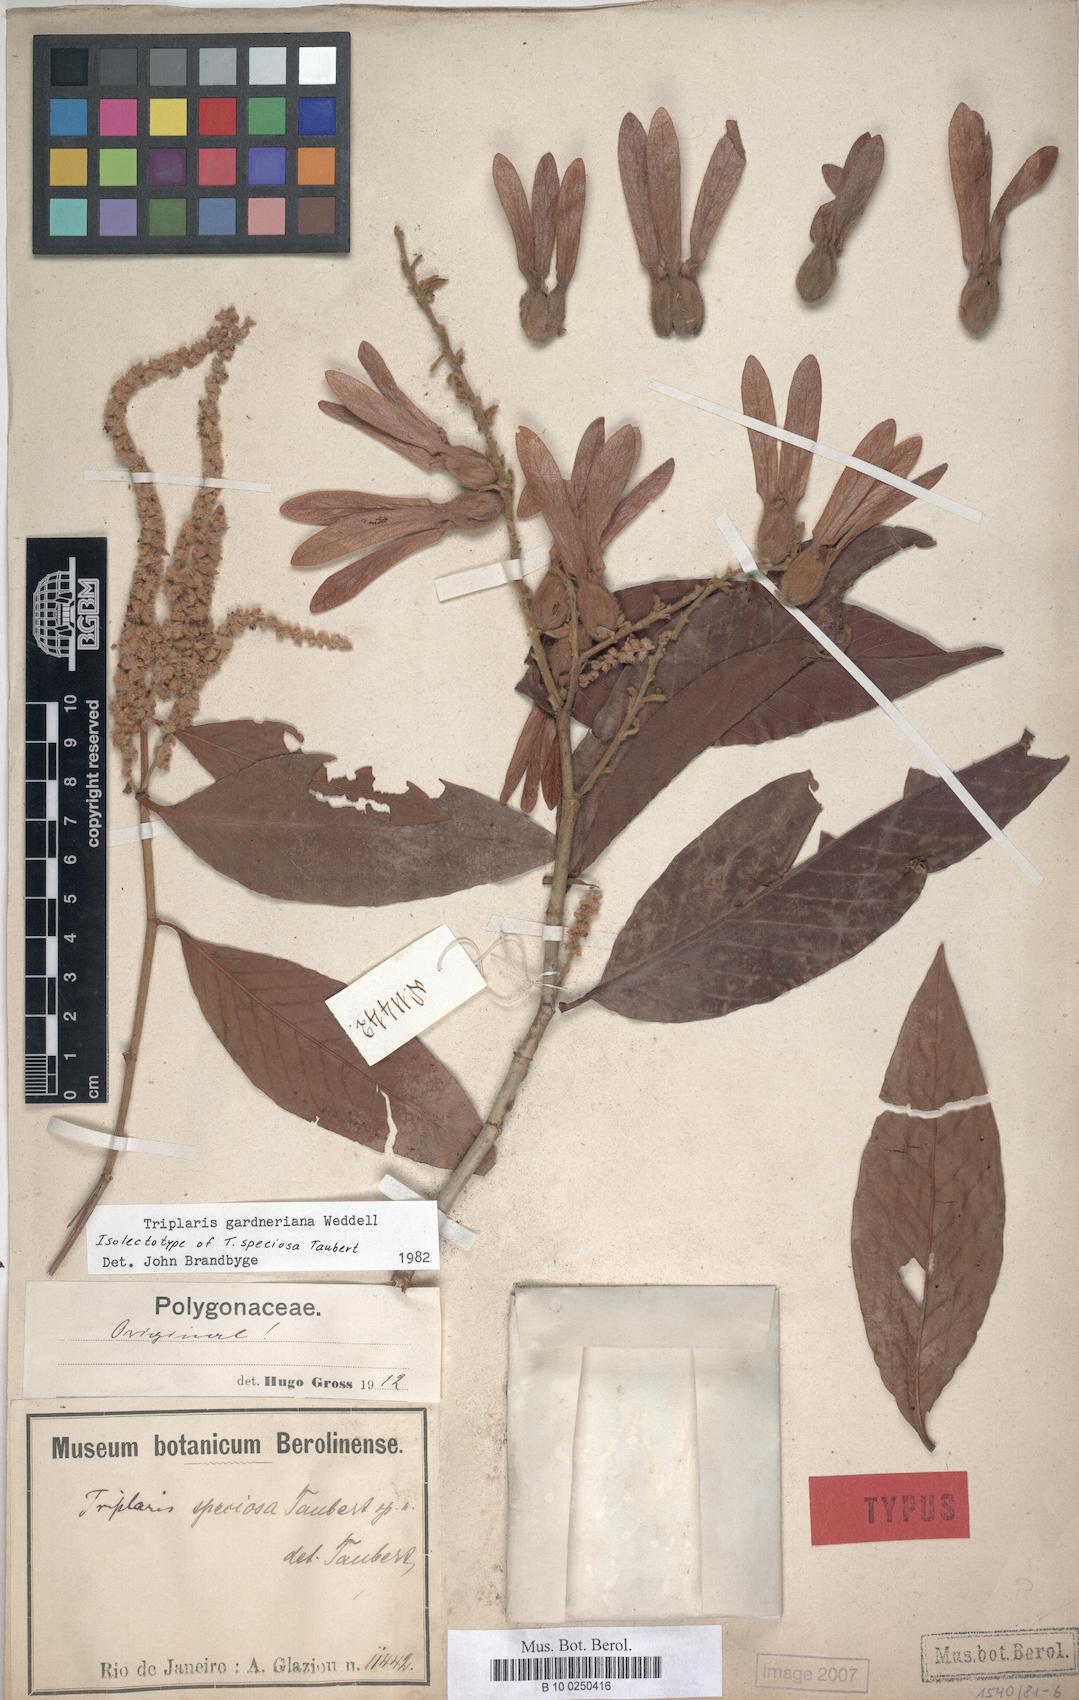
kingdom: Plantae
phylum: Tracheophyta
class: Magnoliopsida
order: Caryophyllales
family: Polygonaceae
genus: Triplaris
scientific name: Triplaris gardneriana
